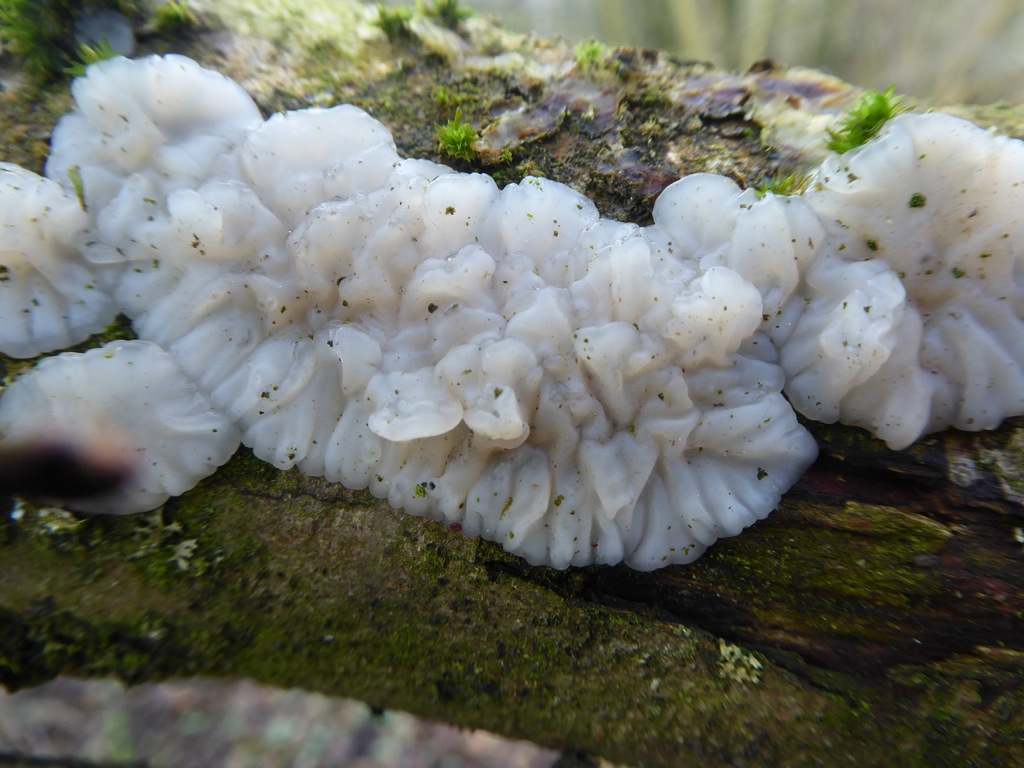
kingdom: Fungi
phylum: Basidiomycota
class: Agaricomycetes
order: Auriculariales
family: Auriculariaceae
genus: Exidia
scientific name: Exidia thuretiana
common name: hvidlig bævretop
